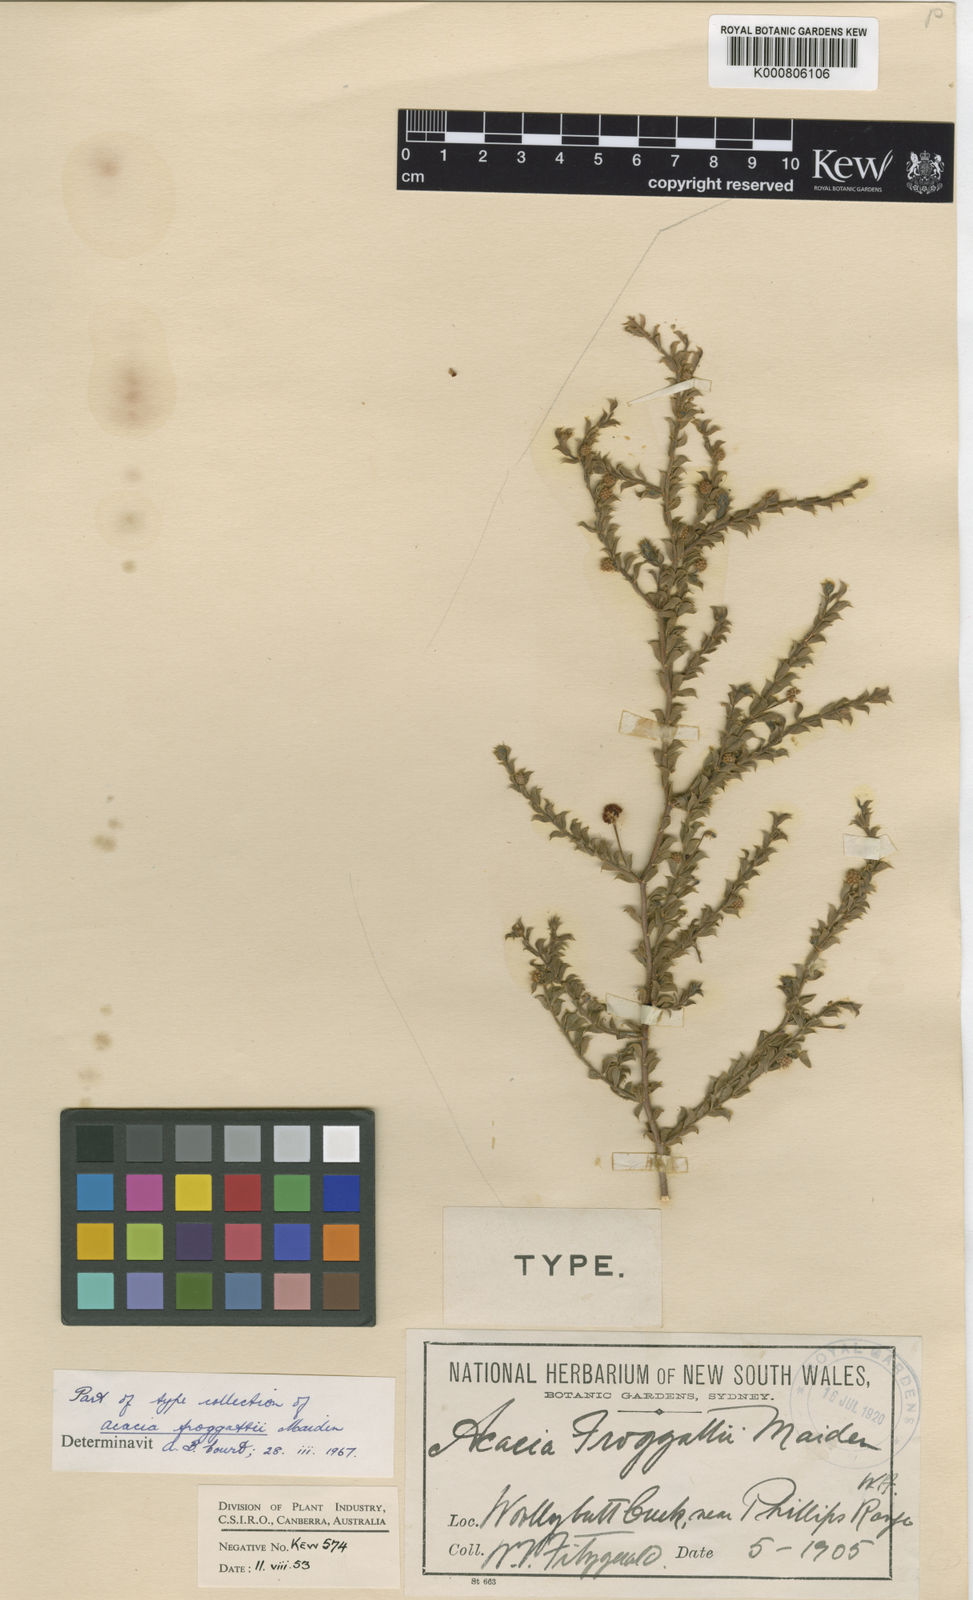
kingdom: Plantae
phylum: Tracheophyta
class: Magnoliopsida
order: Fabales
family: Fabaceae
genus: Acacia
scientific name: Acacia froggattii
